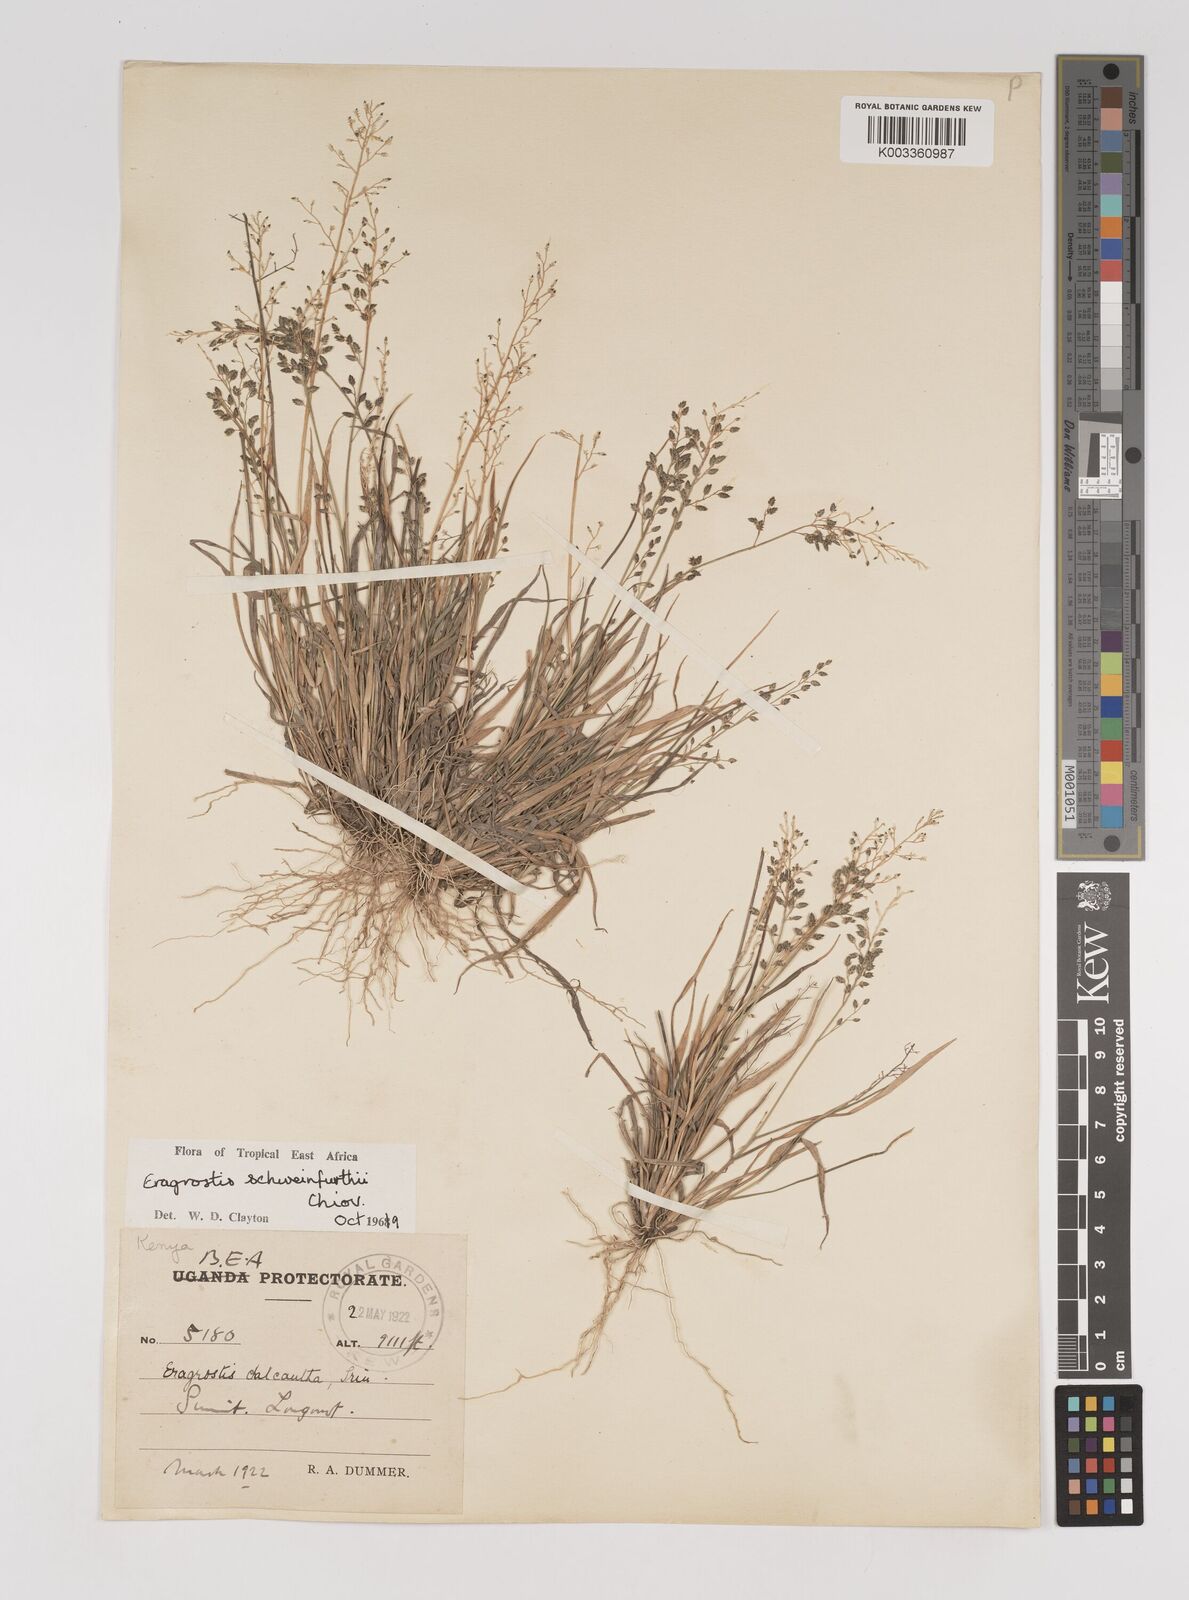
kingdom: Plantae
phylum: Tracheophyta
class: Liliopsida
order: Poales
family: Poaceae
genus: Eragrostis
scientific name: Eragrostis schweinfurthii
